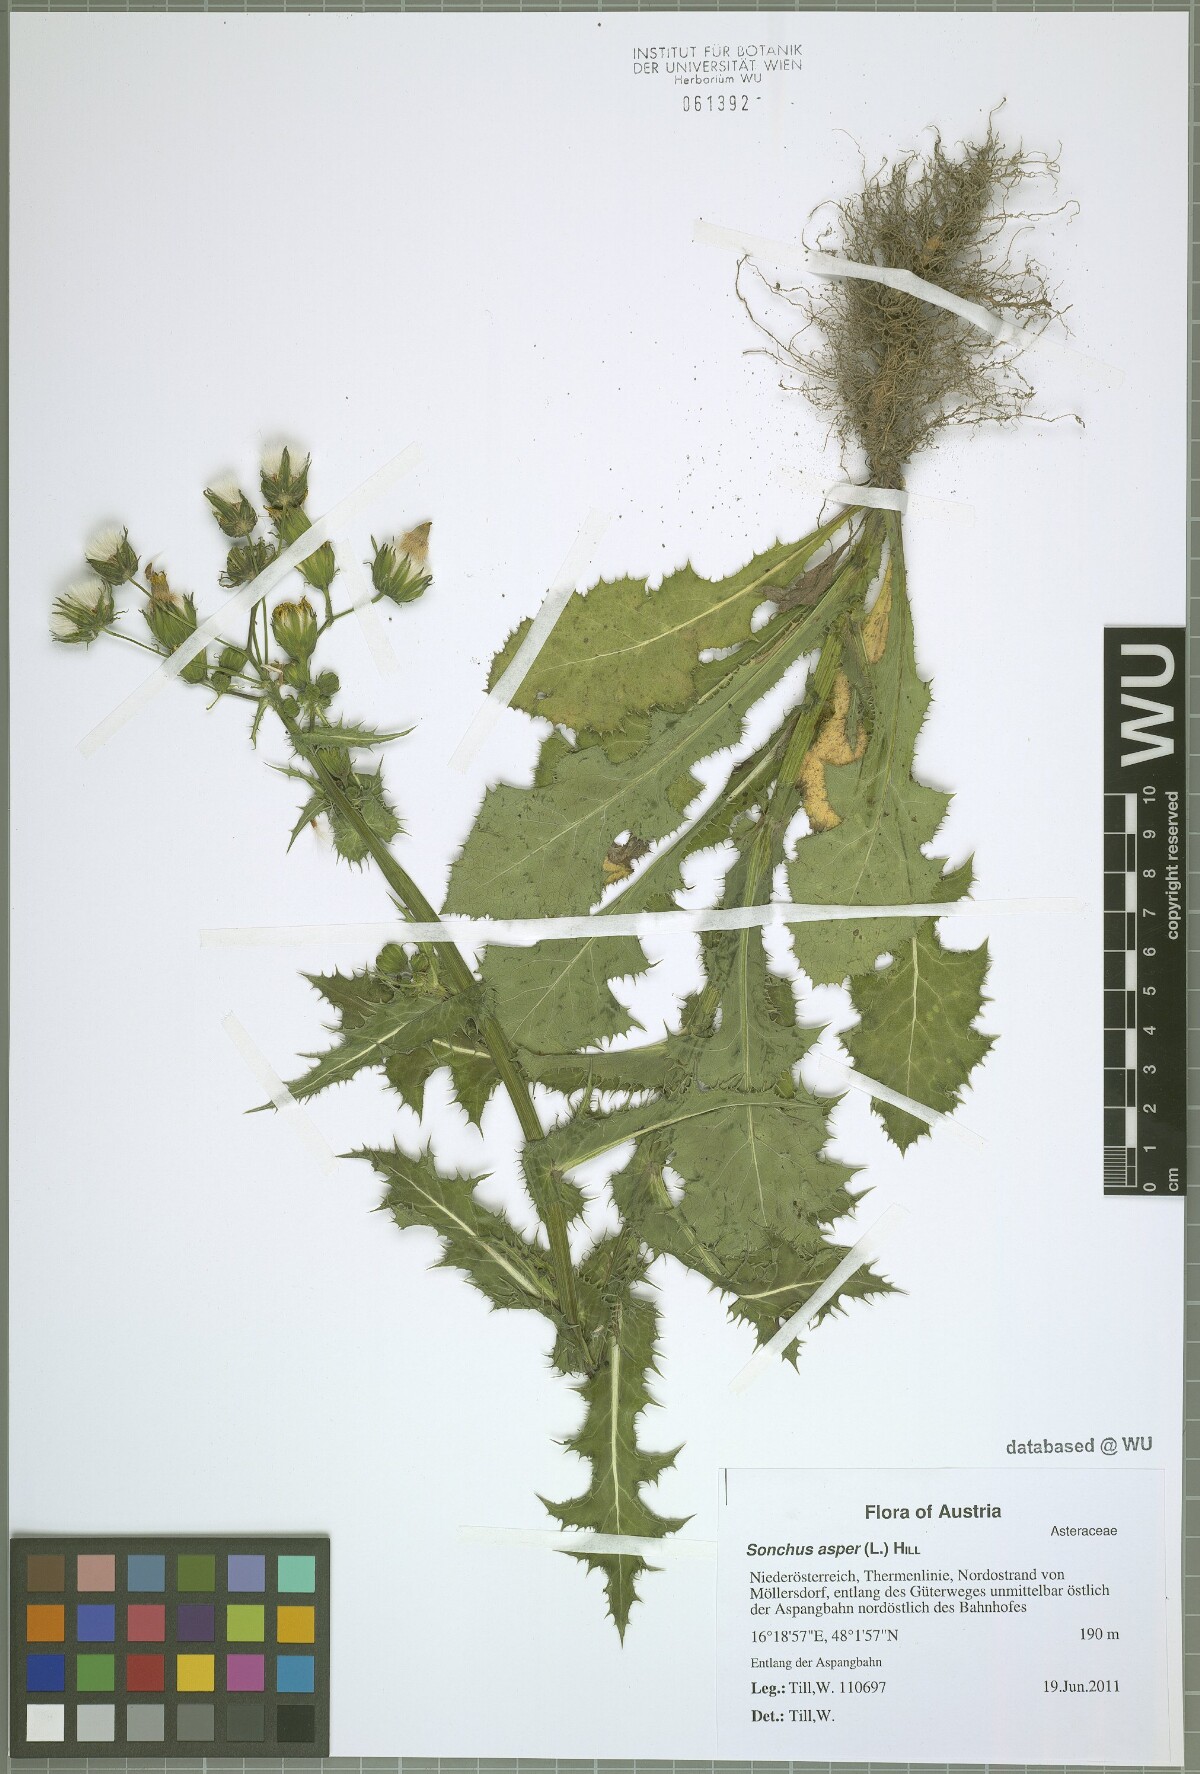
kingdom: Plantae
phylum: Tracheophyta
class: Magnoliopsida
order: Asterales
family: Asteraceae
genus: Sonchus
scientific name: Sonchus asper
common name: Prickly sow-thistle
